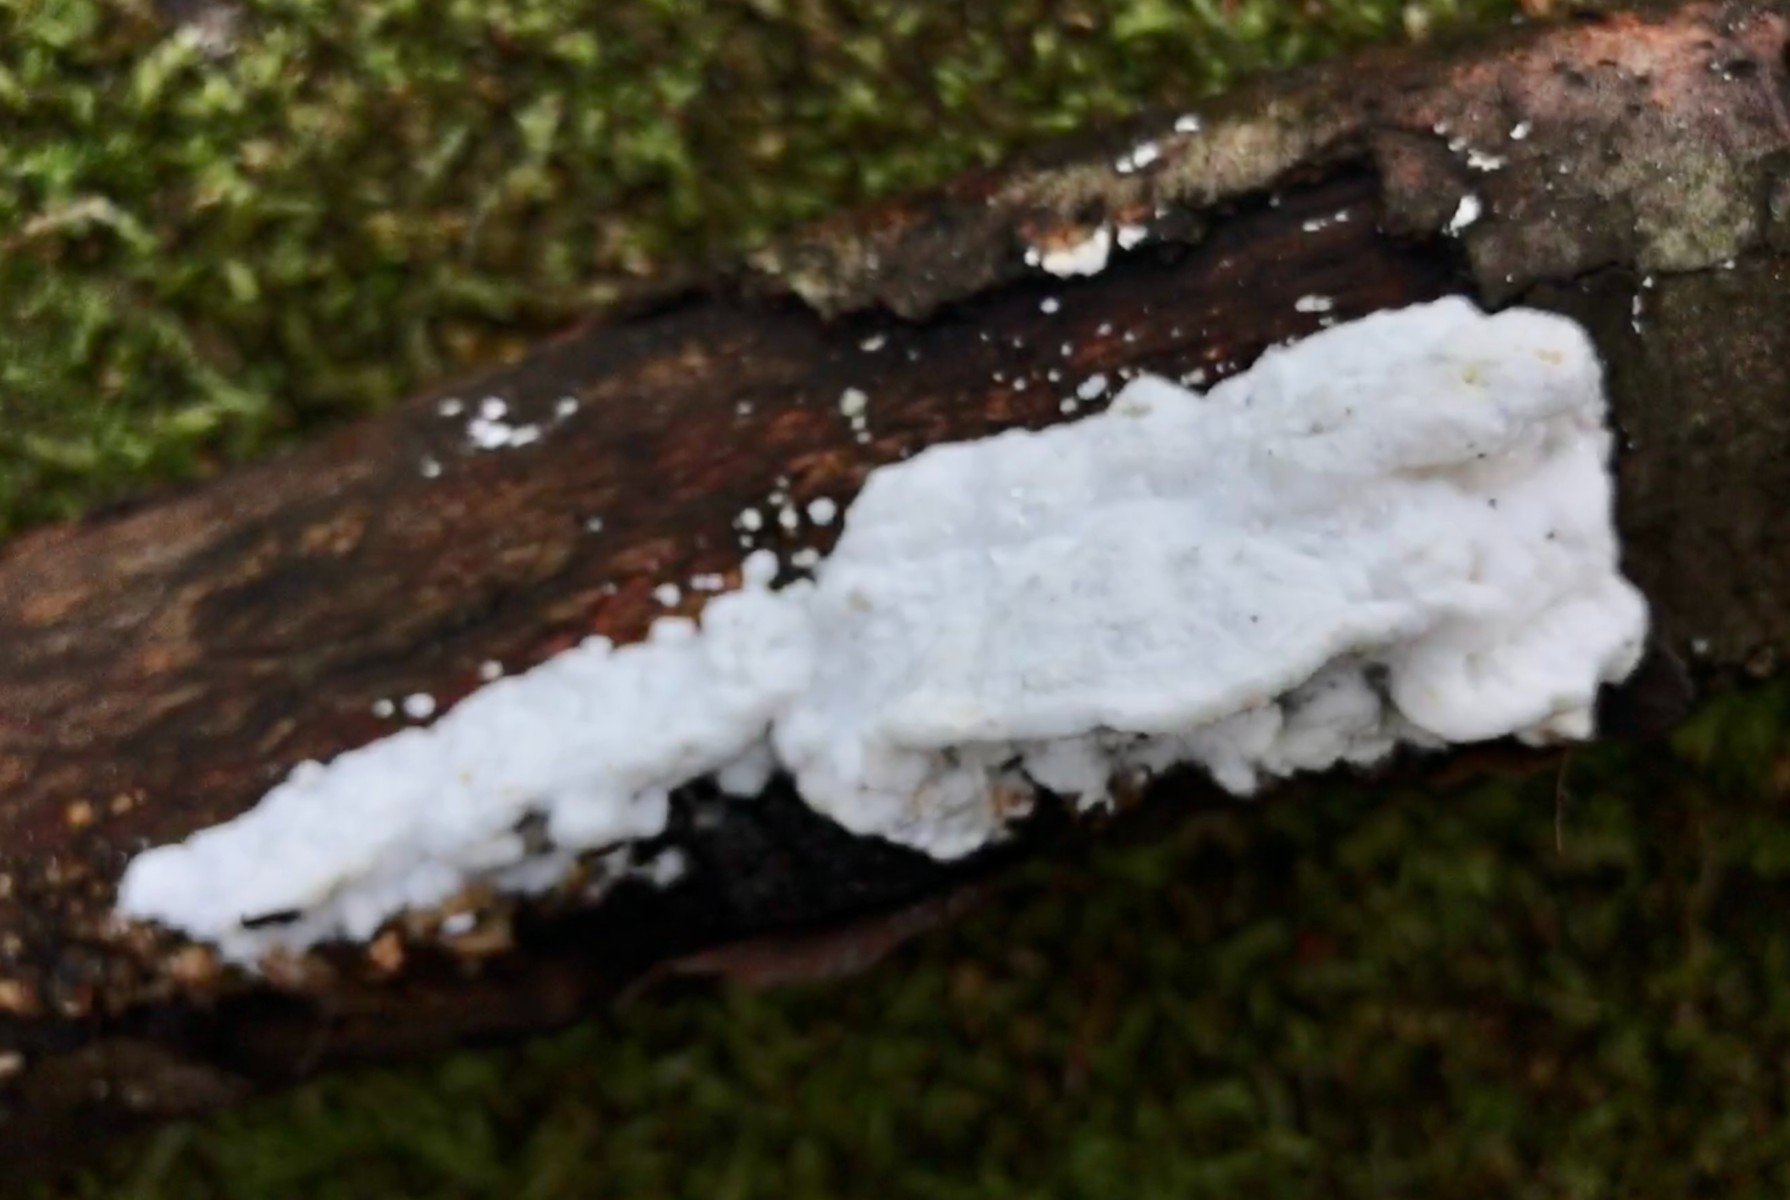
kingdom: Fungi
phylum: Basidiomycota
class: Agaricomycetes
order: Polyporales
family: Incrustoporiaceae
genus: Tyromyces
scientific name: Tyromyces lacteus
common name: mælkehvid kødporesvamp
